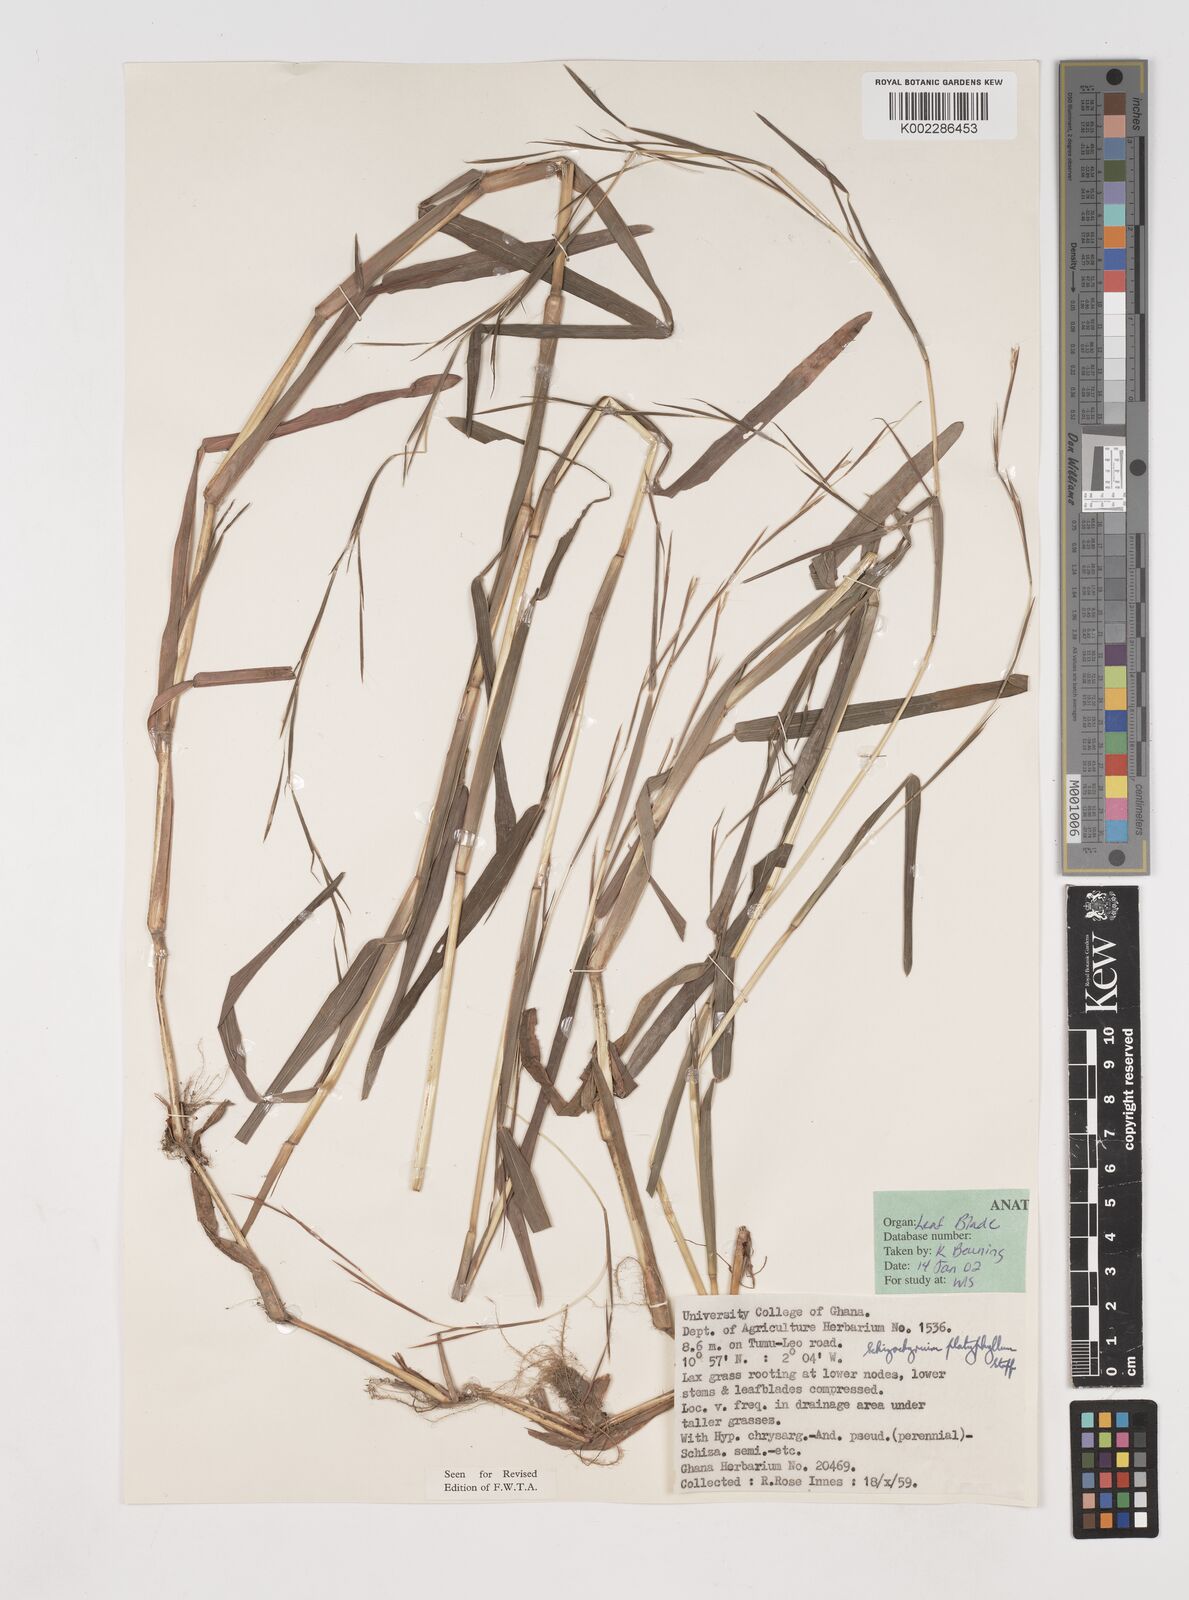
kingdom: Plantae
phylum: Tracheophyta
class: Liliopsida
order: Poales
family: Poaceae
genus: Schizachyrium
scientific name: Schizachyrium platyphyllum
